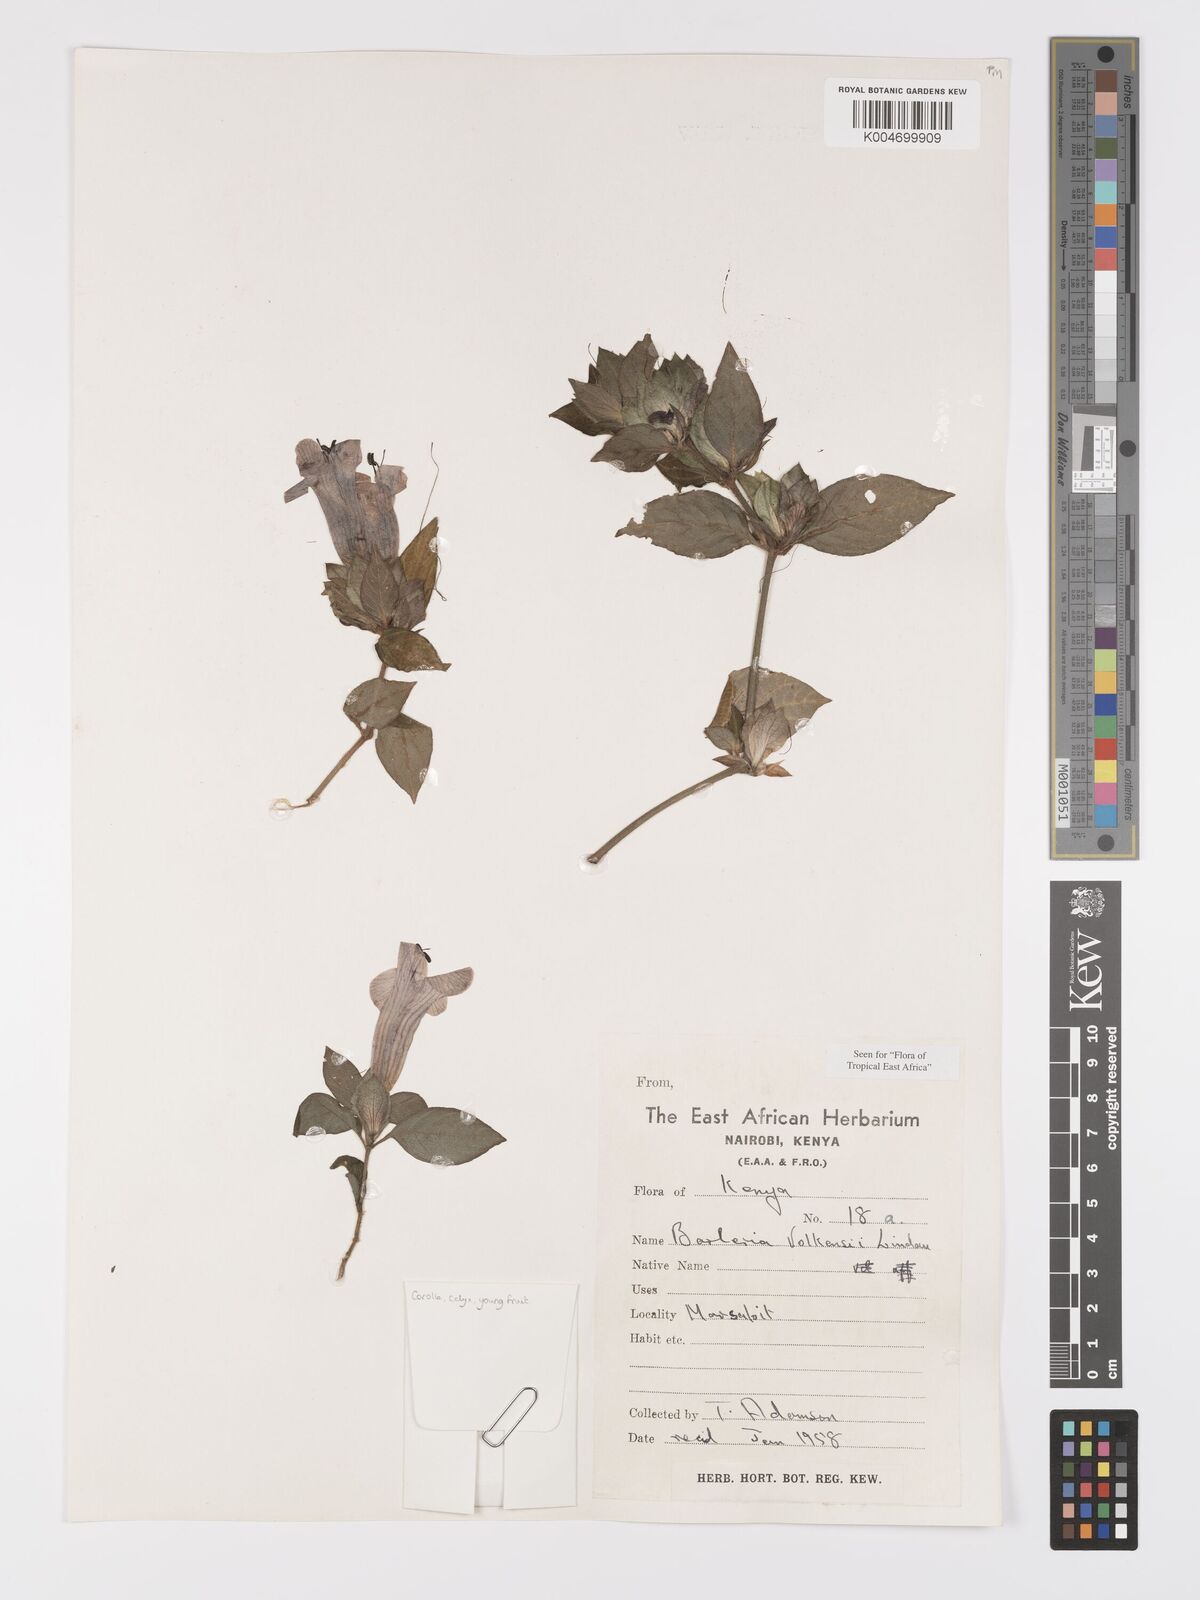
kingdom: Plantae
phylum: Tracheophyta
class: Magnoliopsida
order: Lamiales
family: Acanthaceae
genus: Barleria
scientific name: Barleria volkensii
